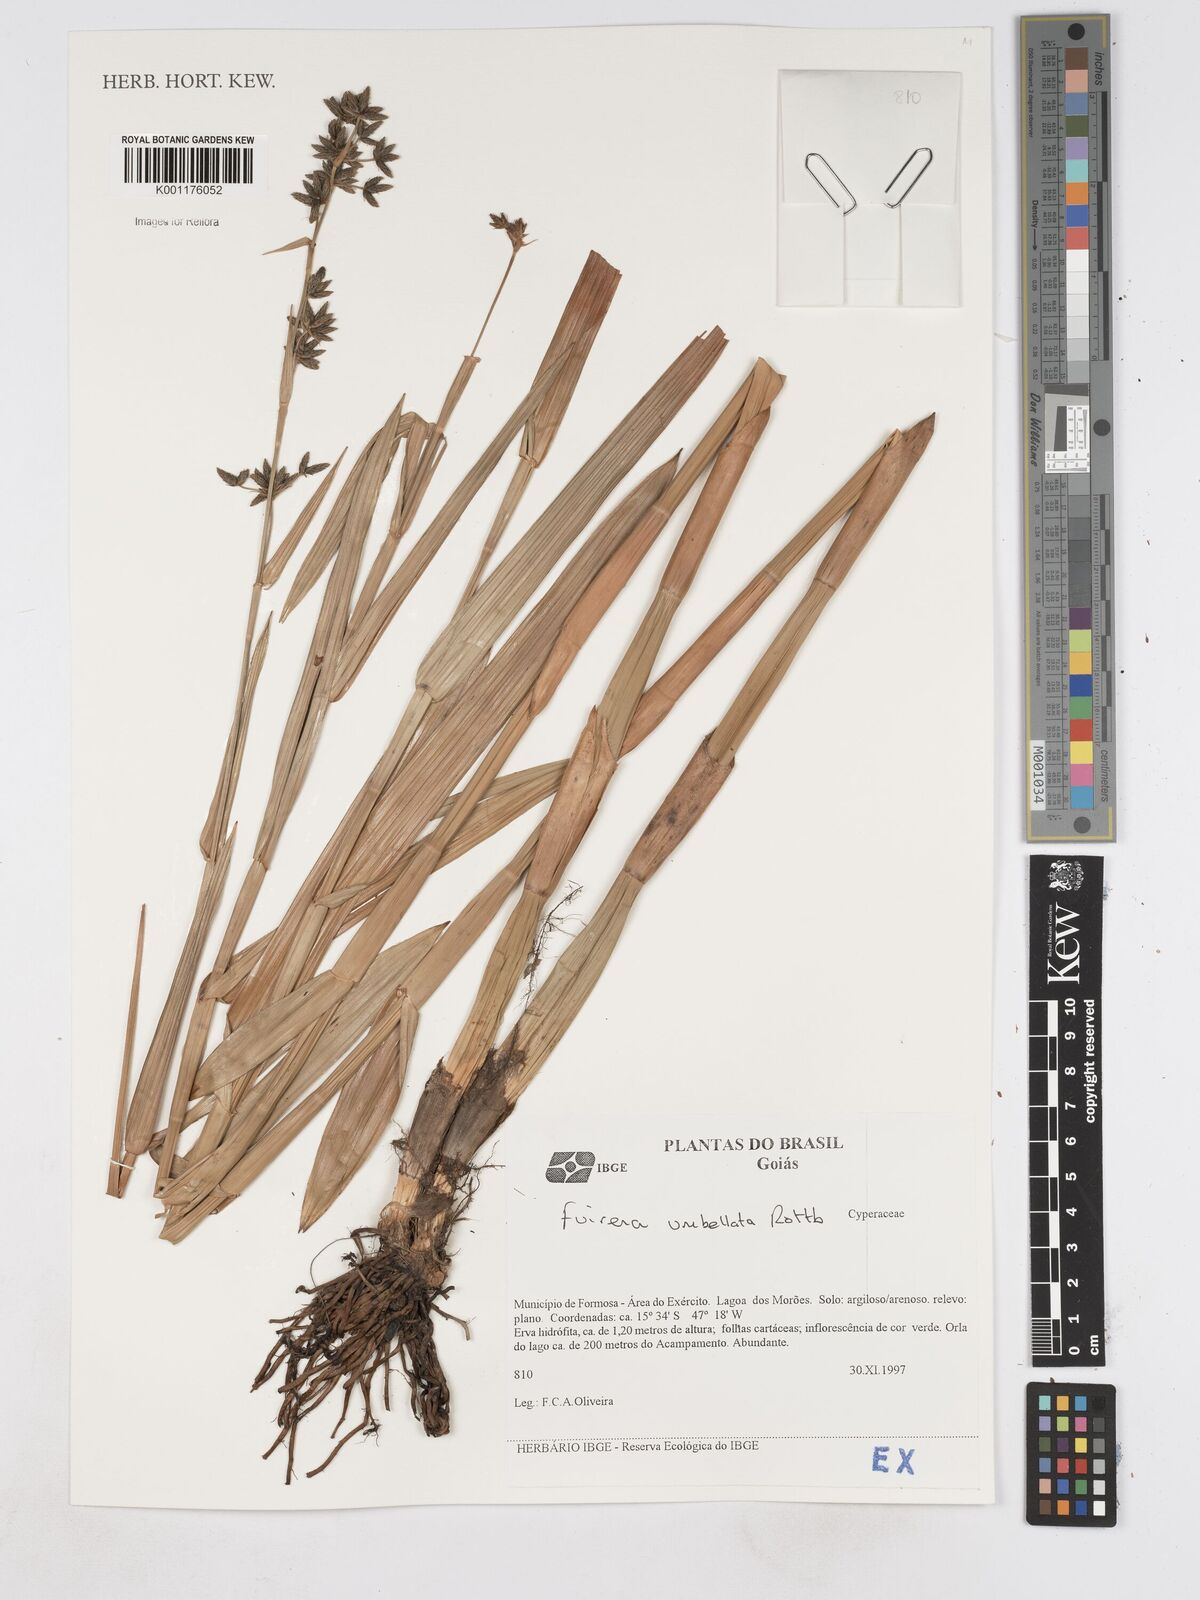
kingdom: Plantae
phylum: Tracheophyta
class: Liliopsida
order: Poales
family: Cyperaceae
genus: Fuirena
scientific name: Fuirena umbellata
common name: Yefen
